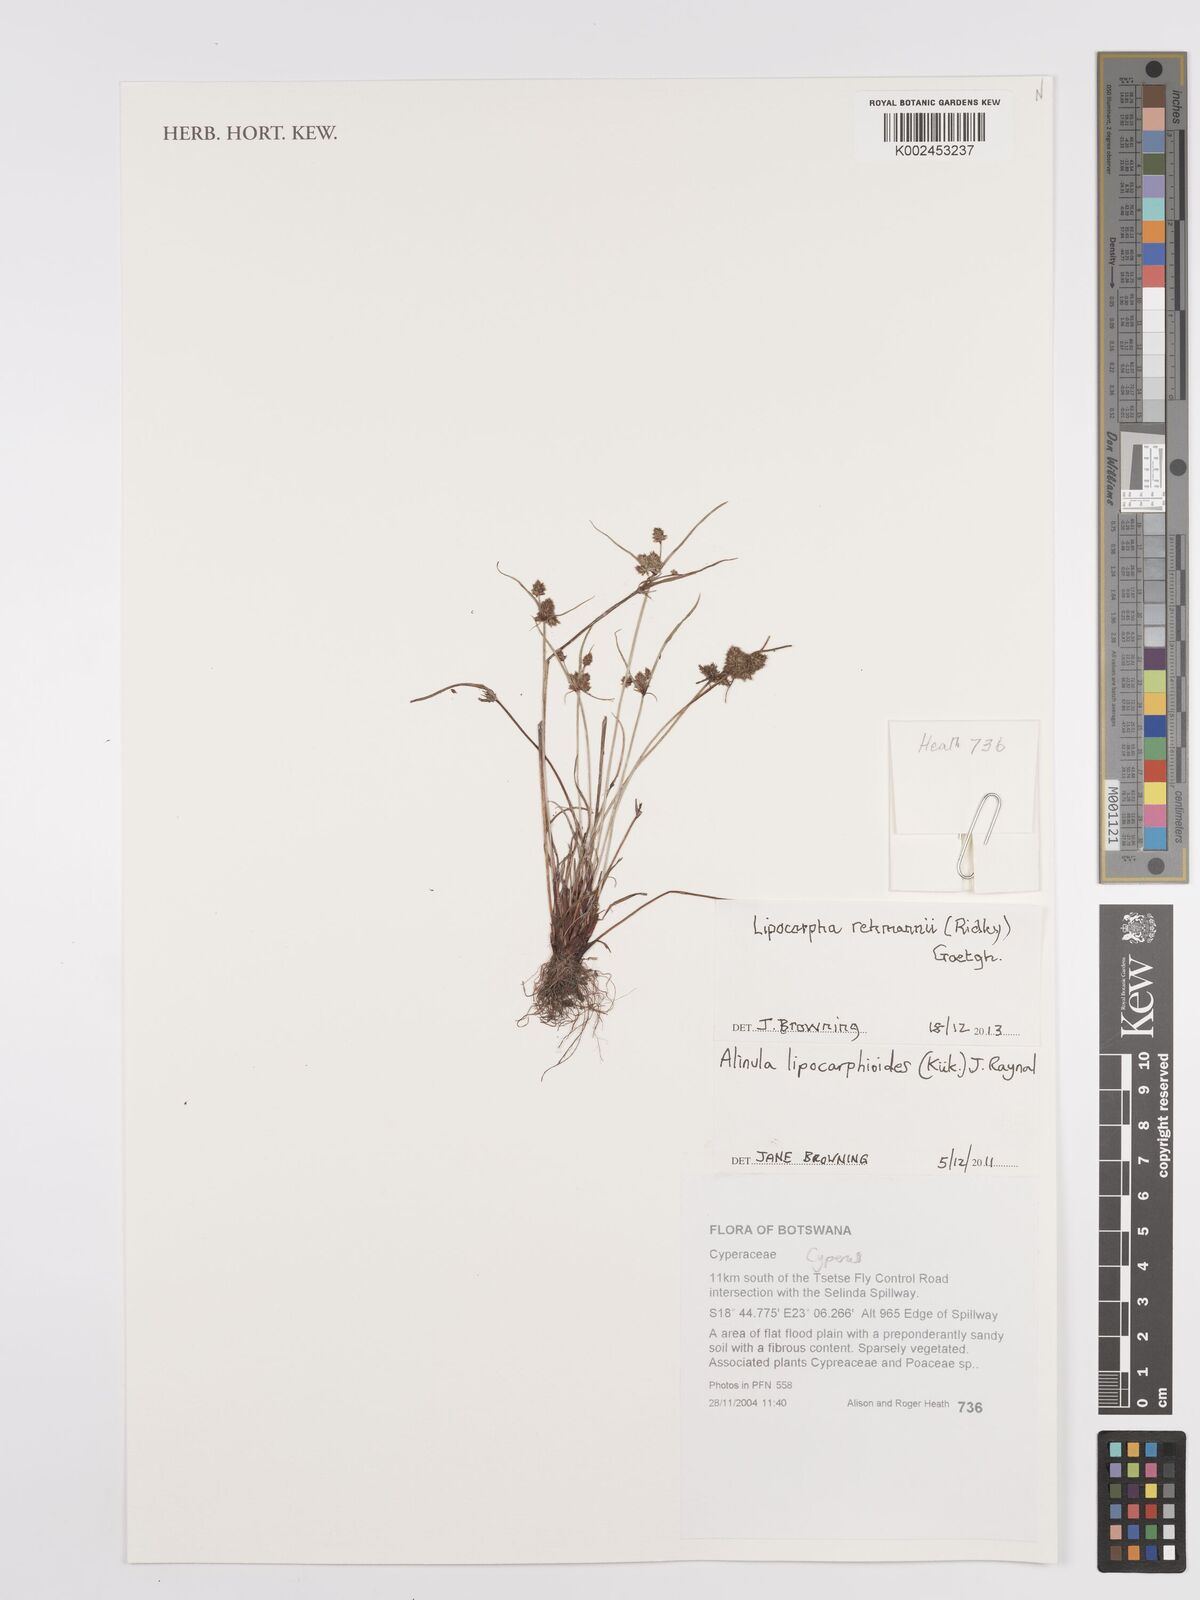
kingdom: Plantae
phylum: Tracheophyta
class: Liliopsida
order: Poales
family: Cyperaceae
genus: Cyperus
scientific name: Cyperus sanguinolentus
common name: Purpleglume flatsedge
